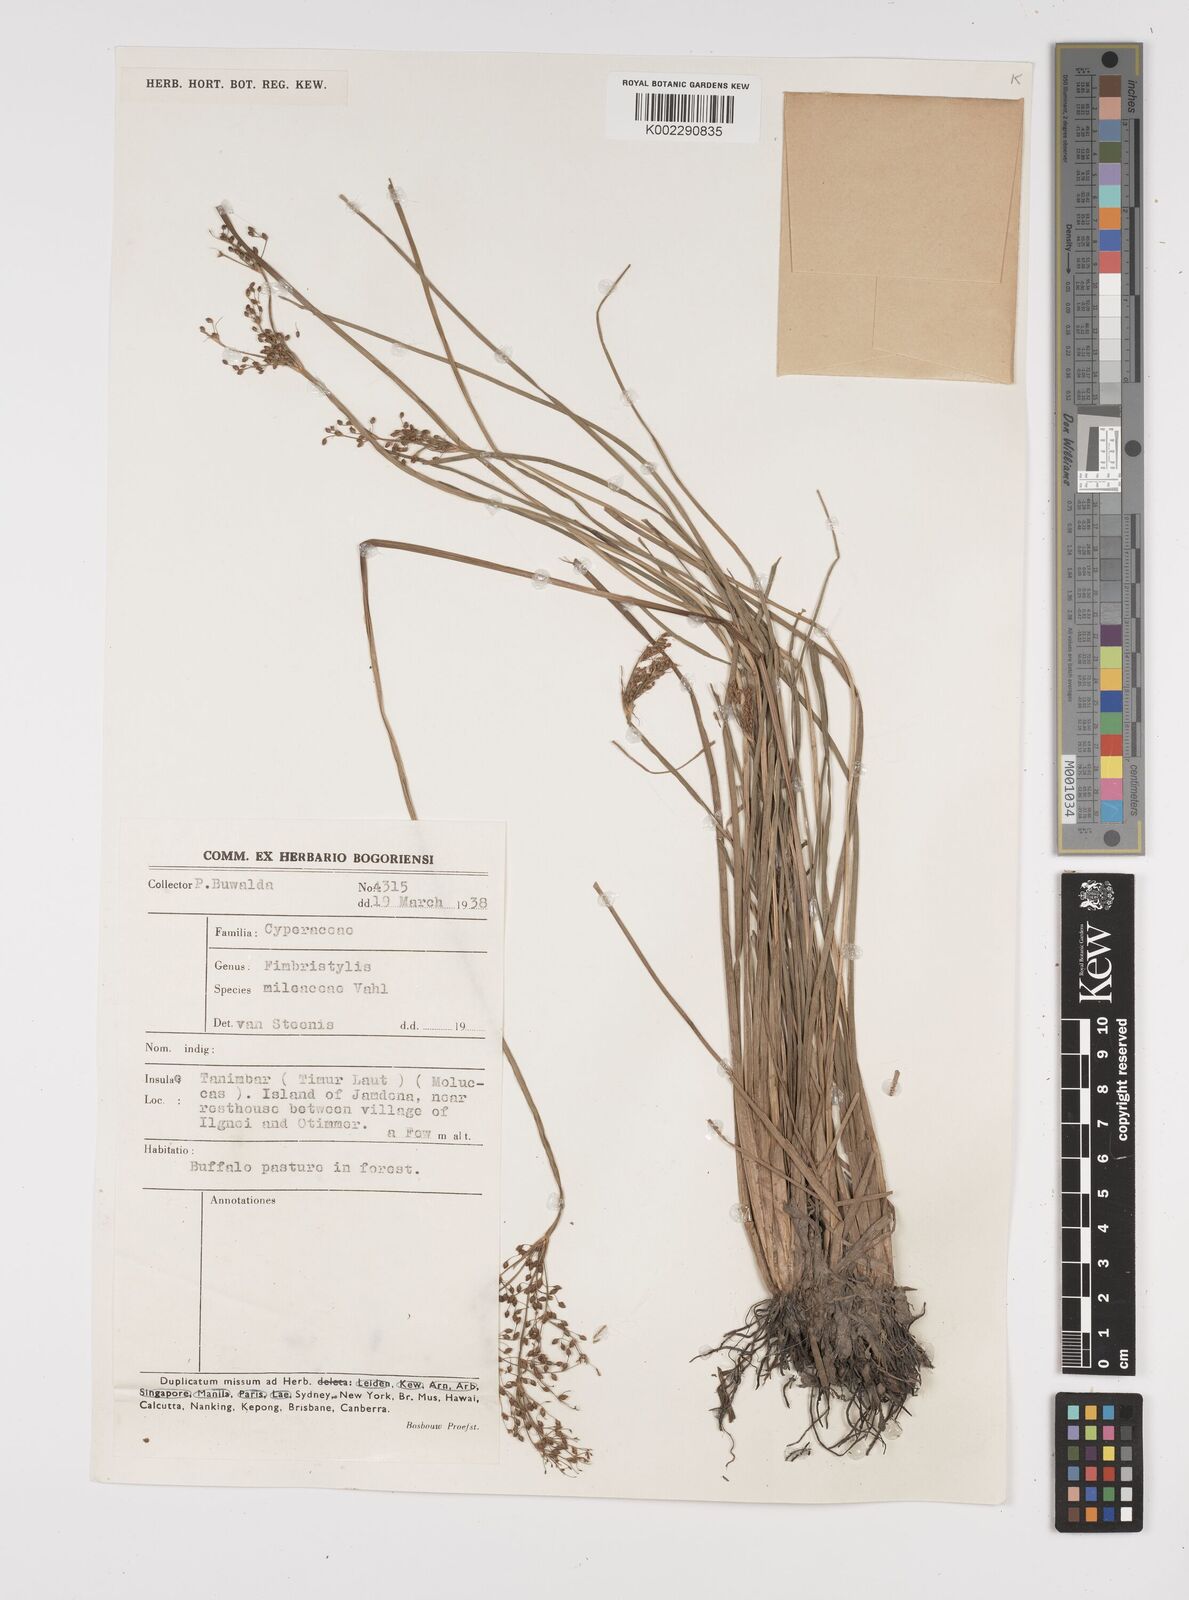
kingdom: Plantae
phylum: Tracheophyta
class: Liliopsida
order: Poales
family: Cyperaceae
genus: Fimbristylis
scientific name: Fimbristylis littoralis
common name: Fimbry
